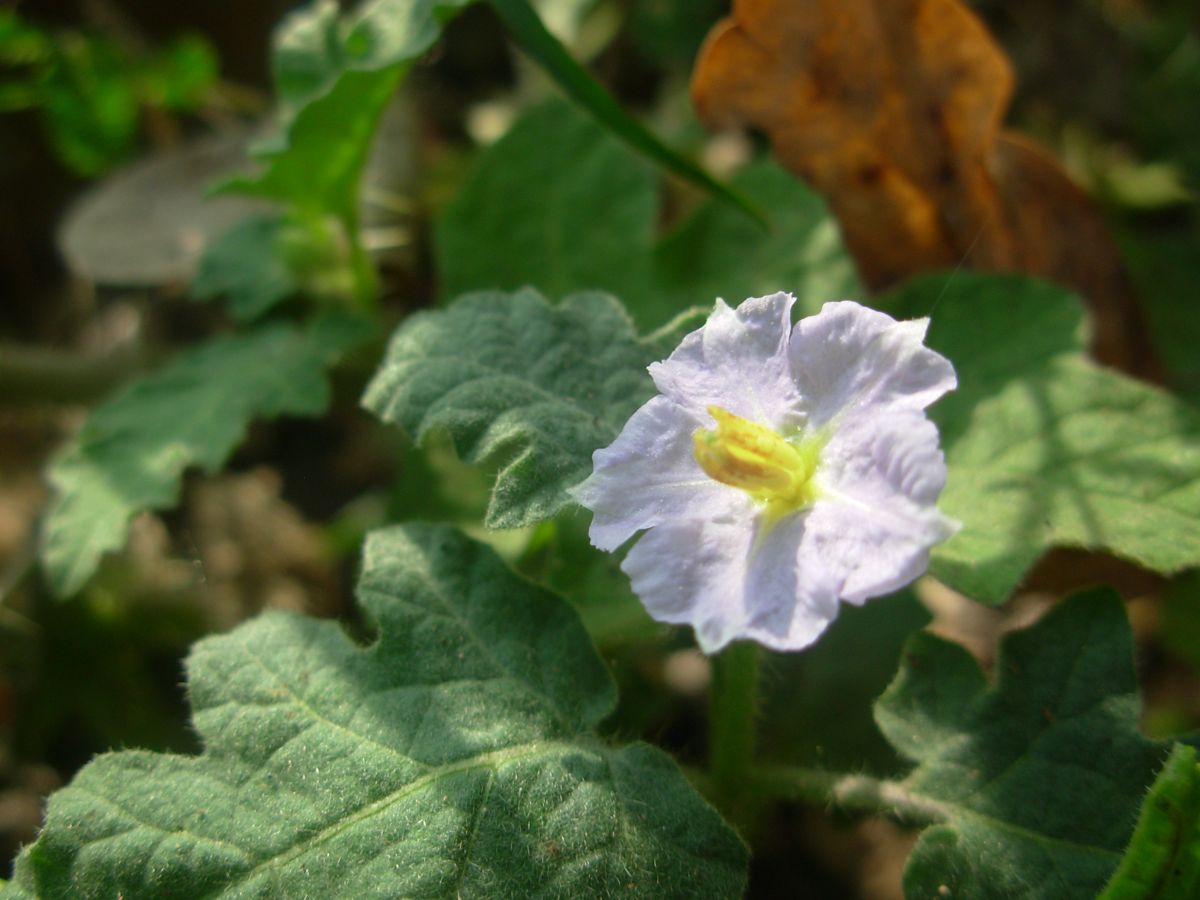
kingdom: Plantae
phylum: Tracheophyta
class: Magnoliopsida
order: Solanales
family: Solanaceae
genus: Solanum
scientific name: Solanum campechiense
